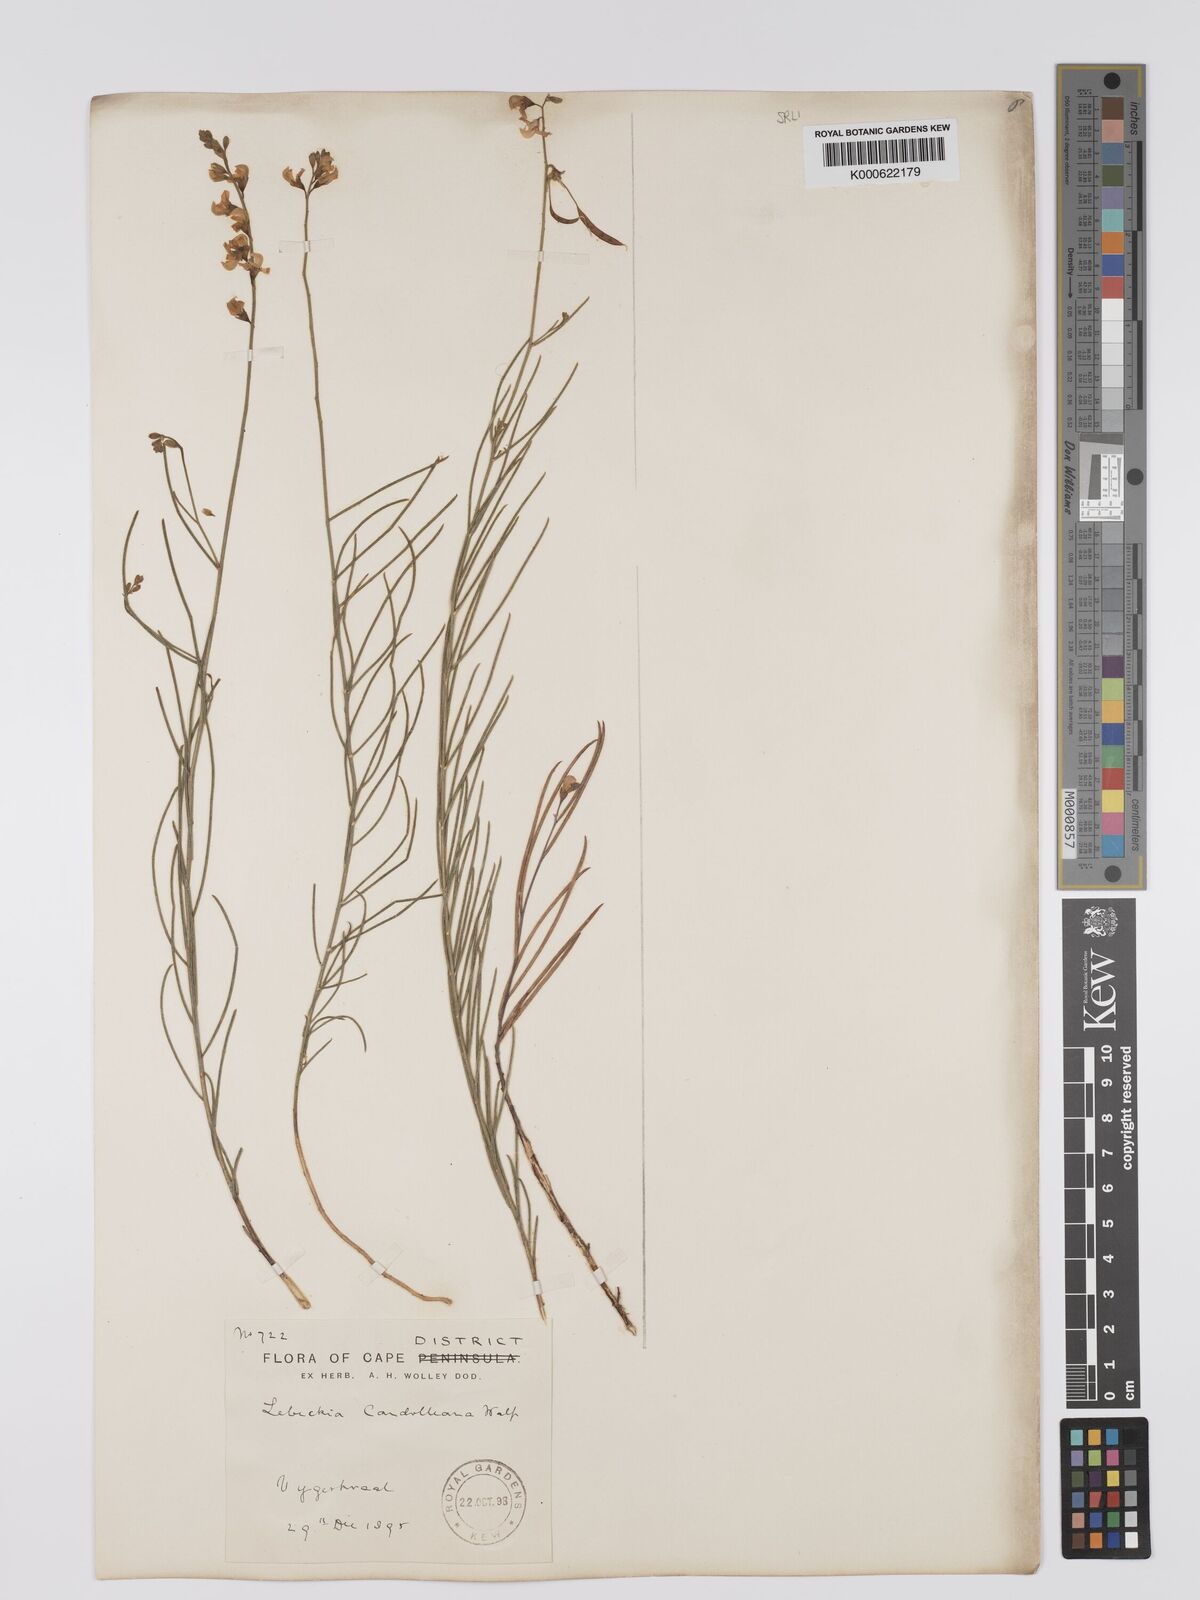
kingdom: Plantae
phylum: Tracheophyta
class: Magnoliopsida
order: Fabales
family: Fabaceae
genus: Aspalathus
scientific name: Aspalathus linearis
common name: Rooibos-tea
